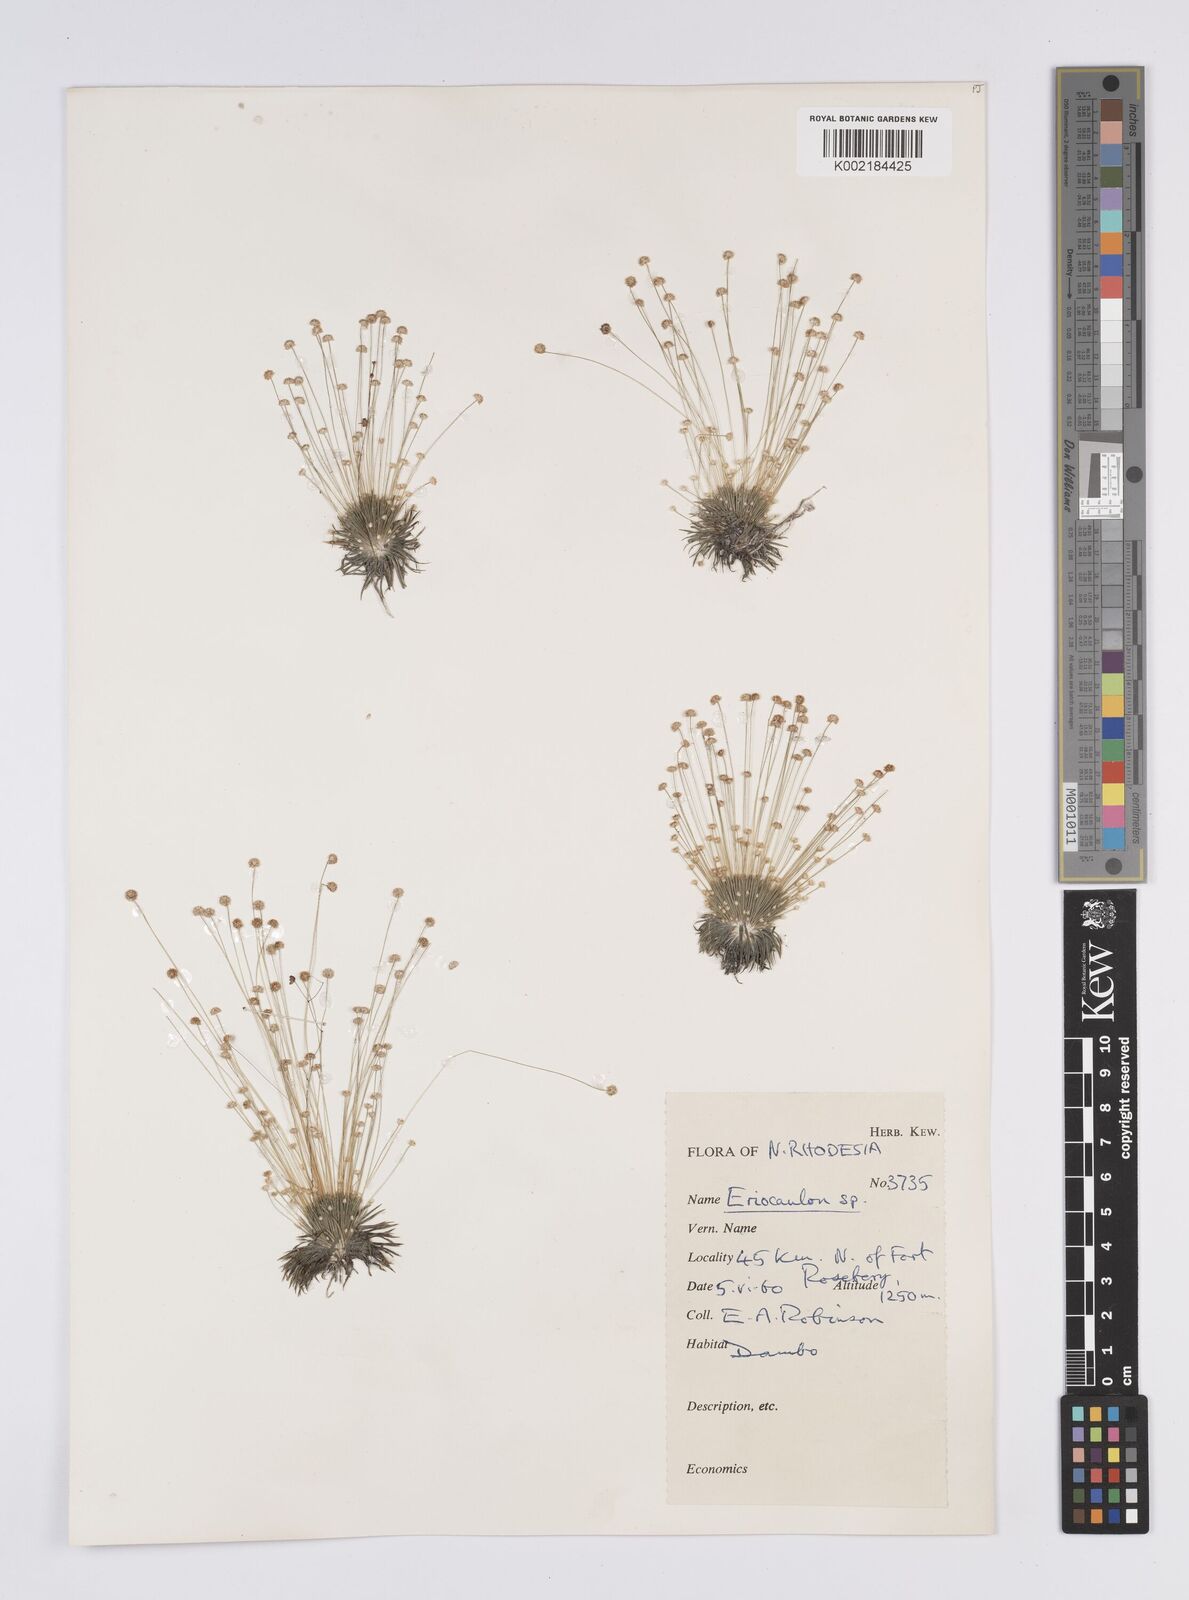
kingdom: Plantae
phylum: Tracheophyta
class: Liliopsida
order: Poales
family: Eriocaulaceae
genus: Eriocaulon
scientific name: Eriocaulon
